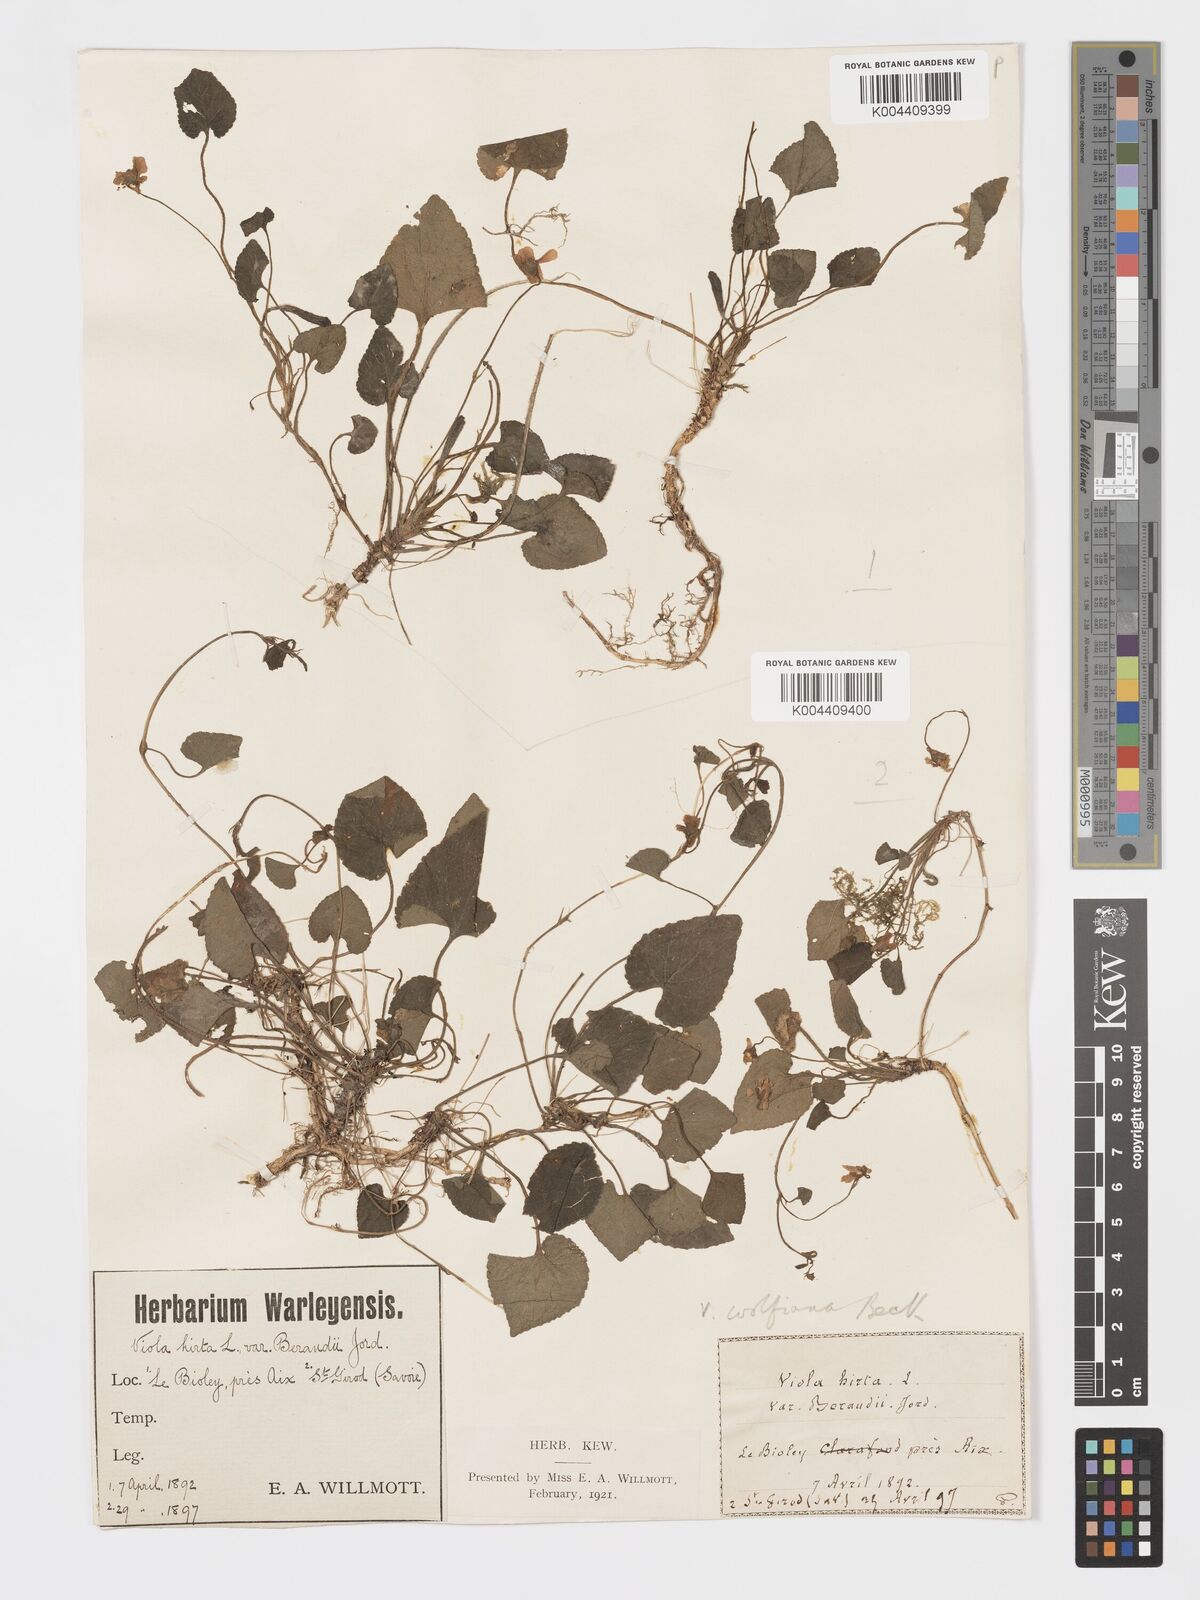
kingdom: Plantae
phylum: Tracheophyta
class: Magnoliopsida
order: Malpighiales
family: Violaceae
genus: Viola
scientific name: Viola alba
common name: White violet
